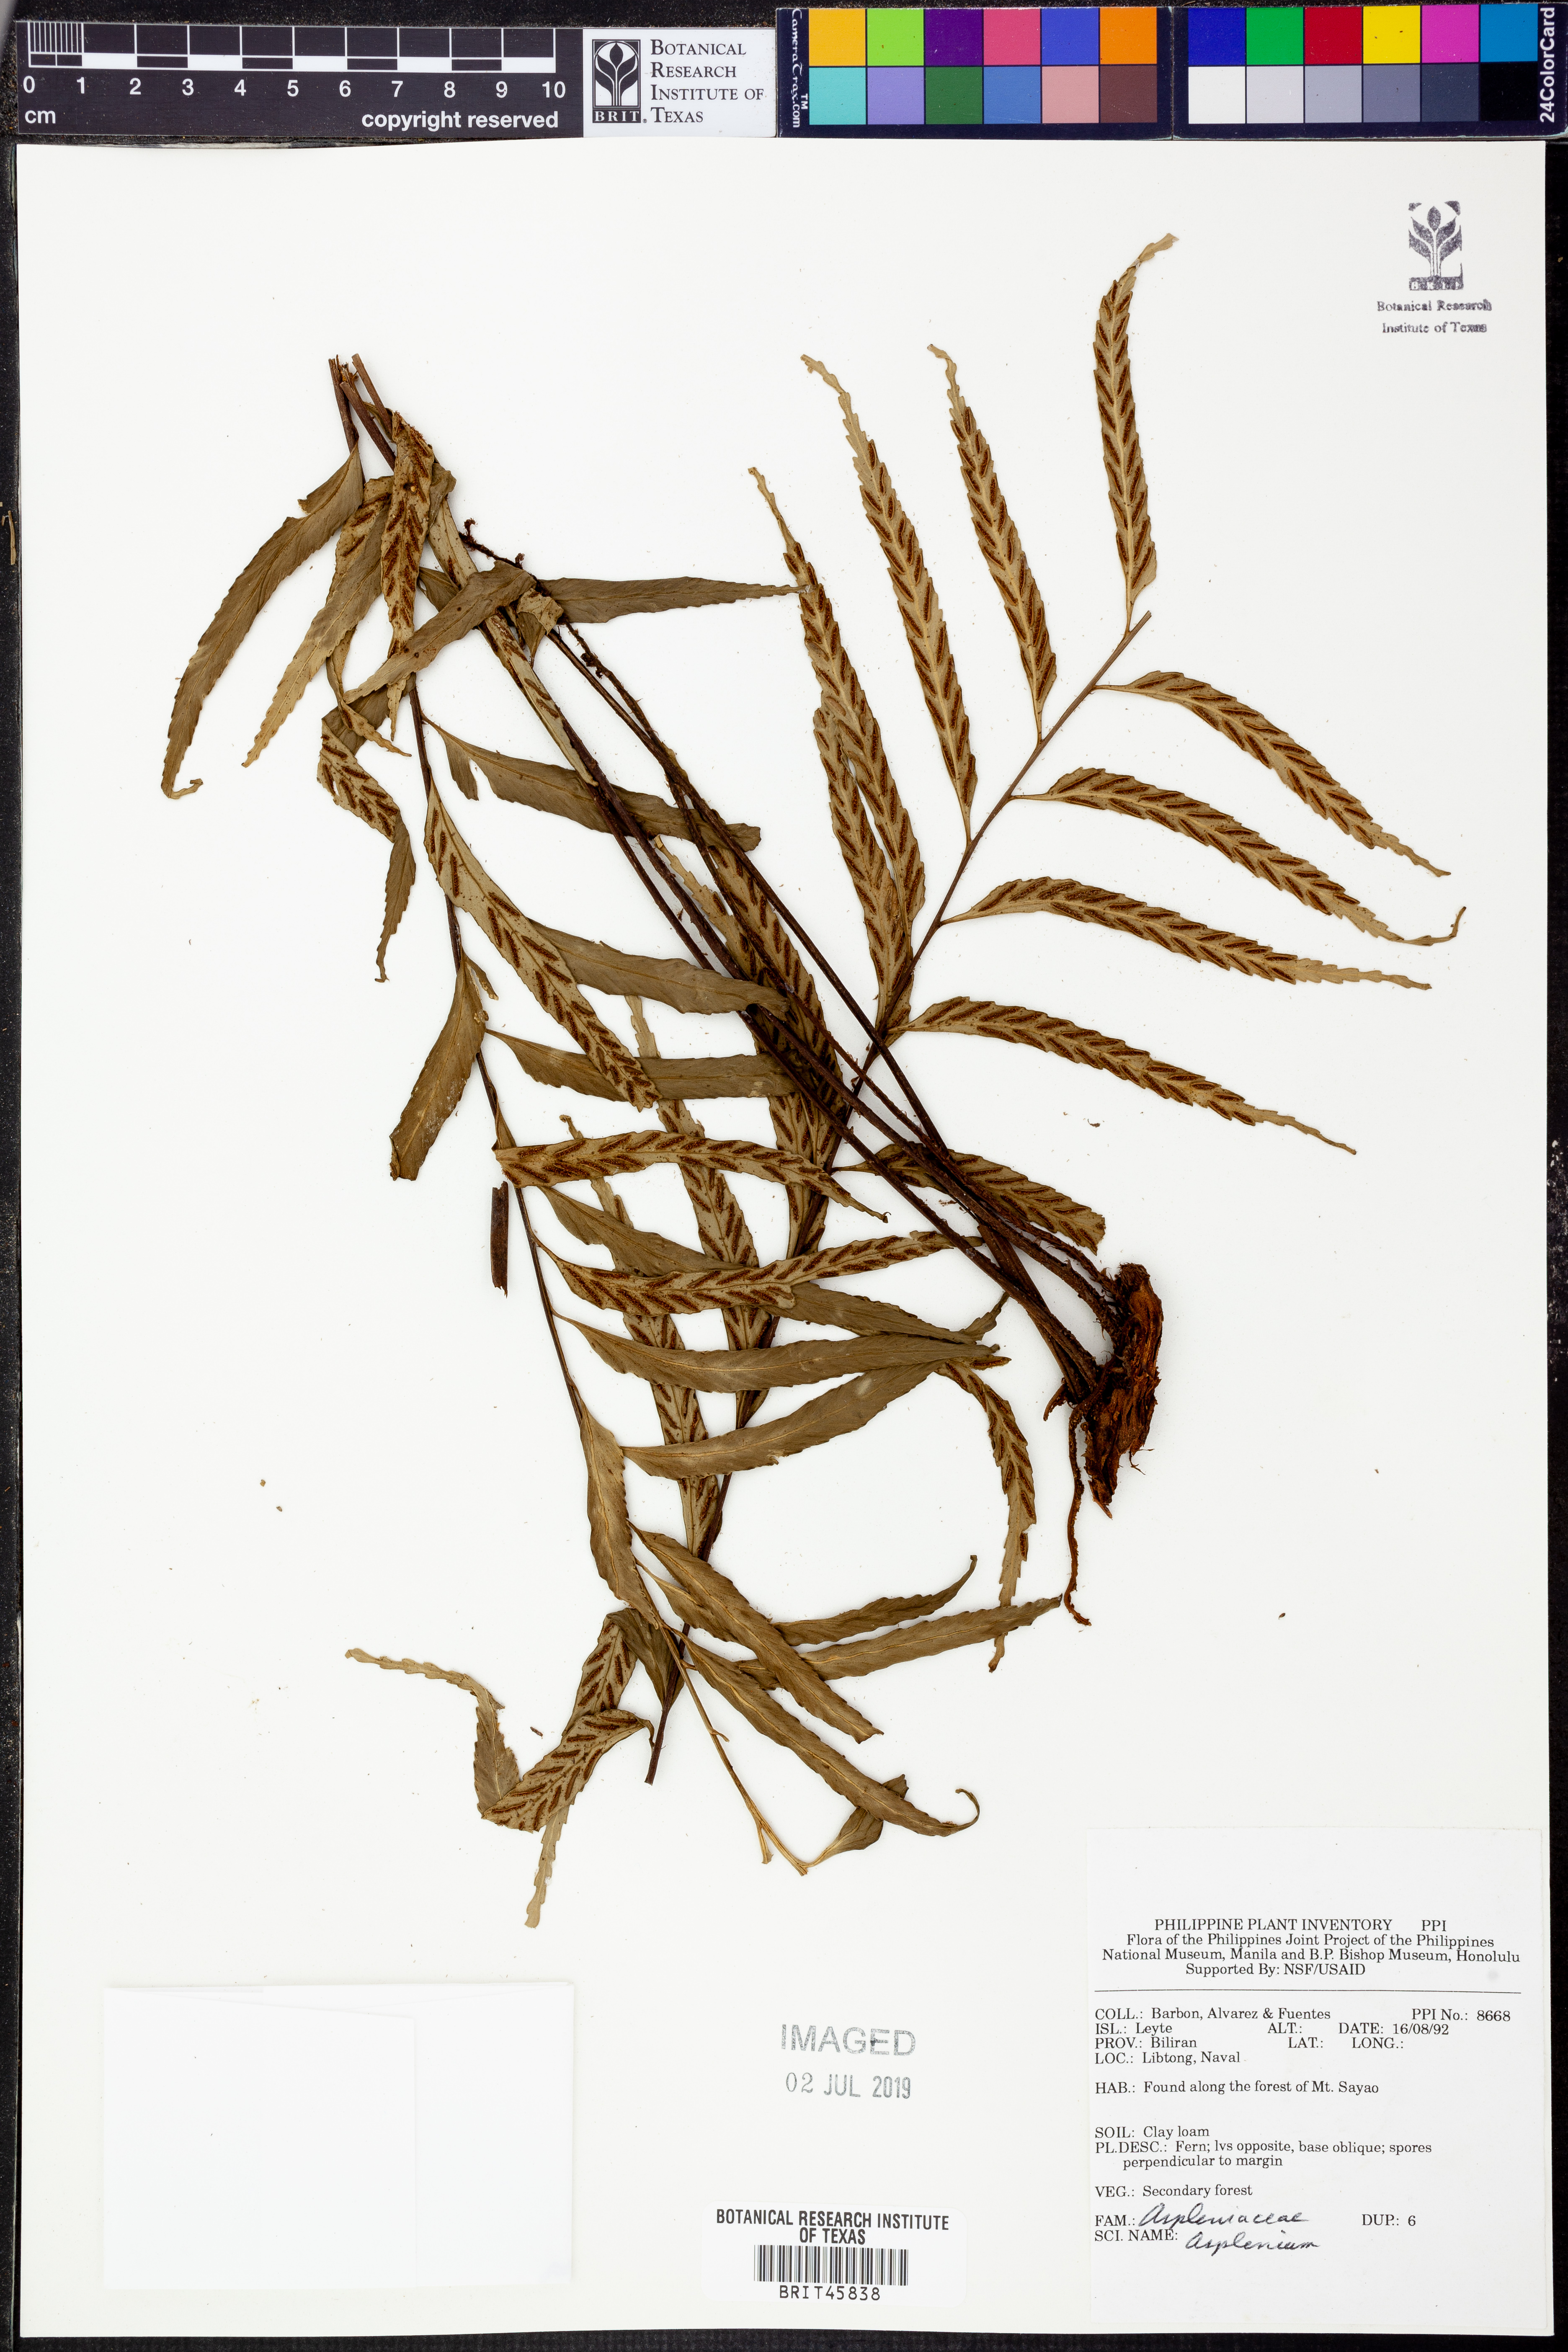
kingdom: Plantae
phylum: Tracheophyta
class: Polypodiopsida
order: Polypodiales
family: Aspleniaceae
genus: Asplenium
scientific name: Asplenium
